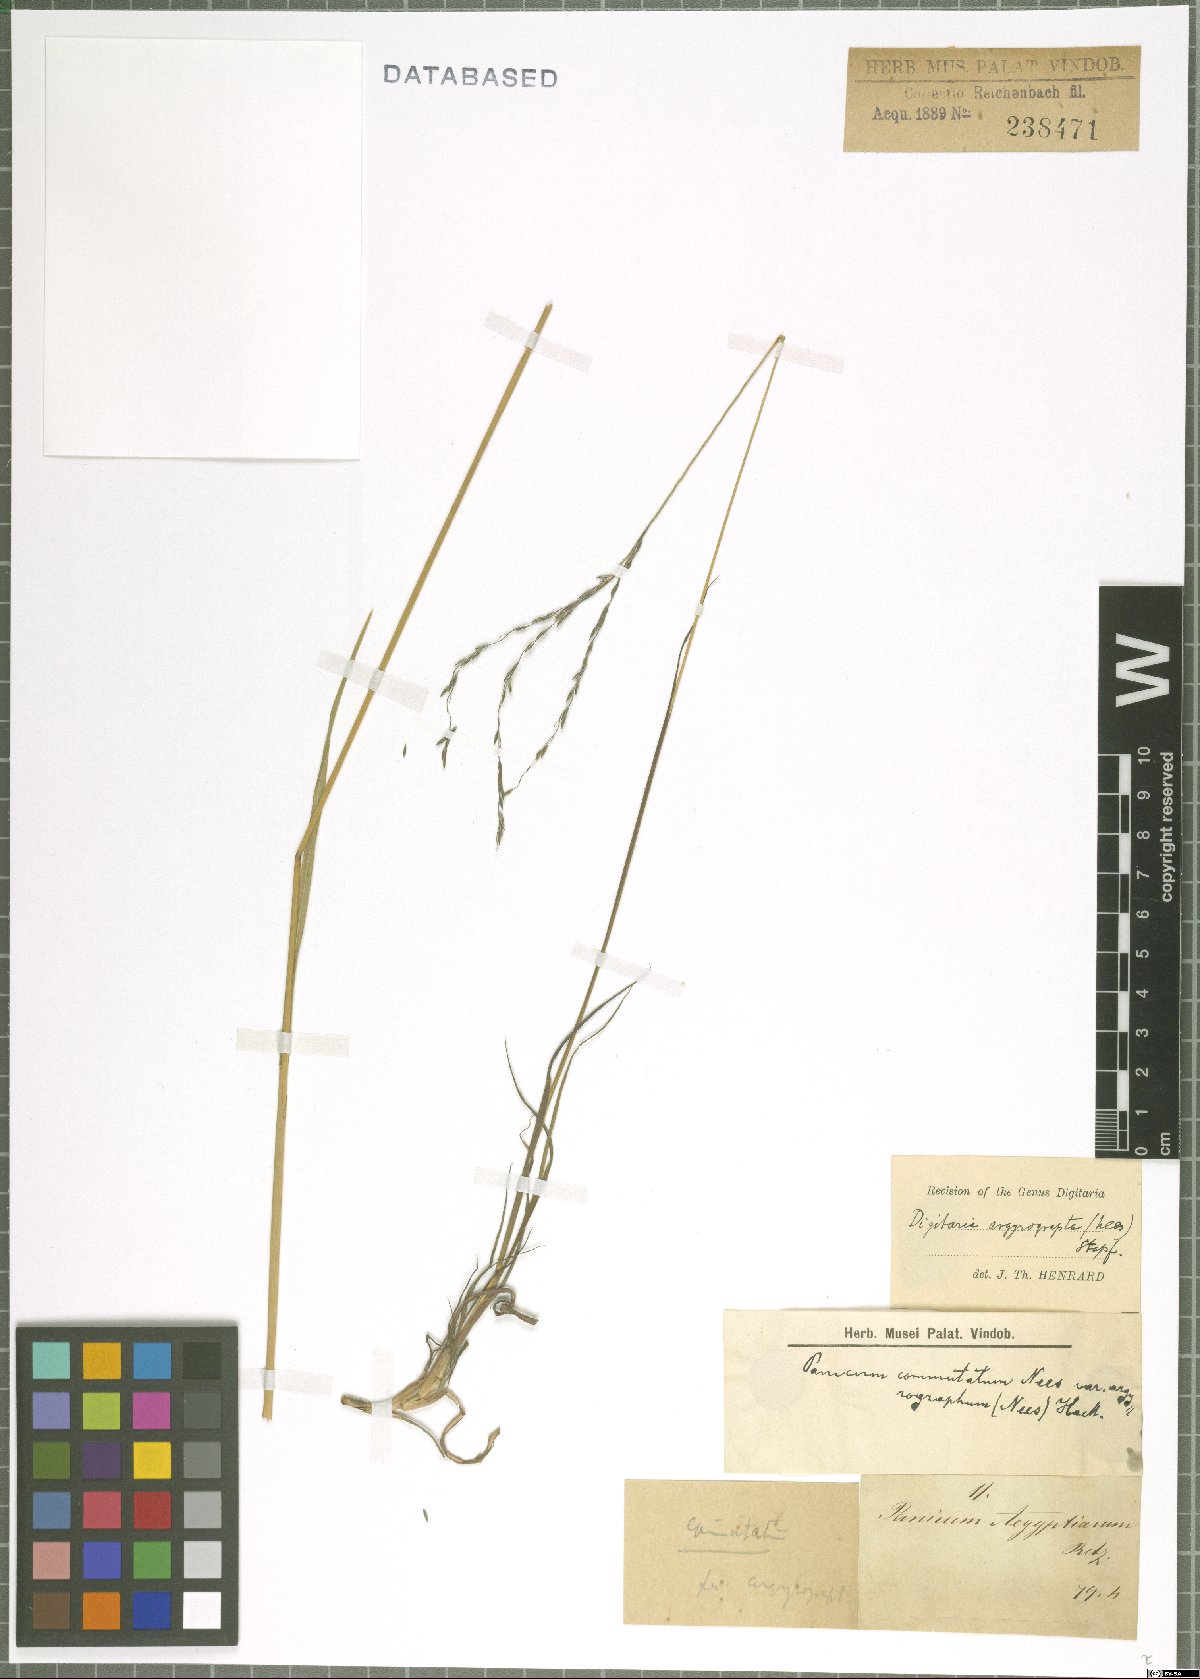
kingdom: Plantae
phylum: Tracheophyta
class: Liliopsida
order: Poales
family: Poaceae
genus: Digitaria
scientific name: Digitaria argyrograpta
